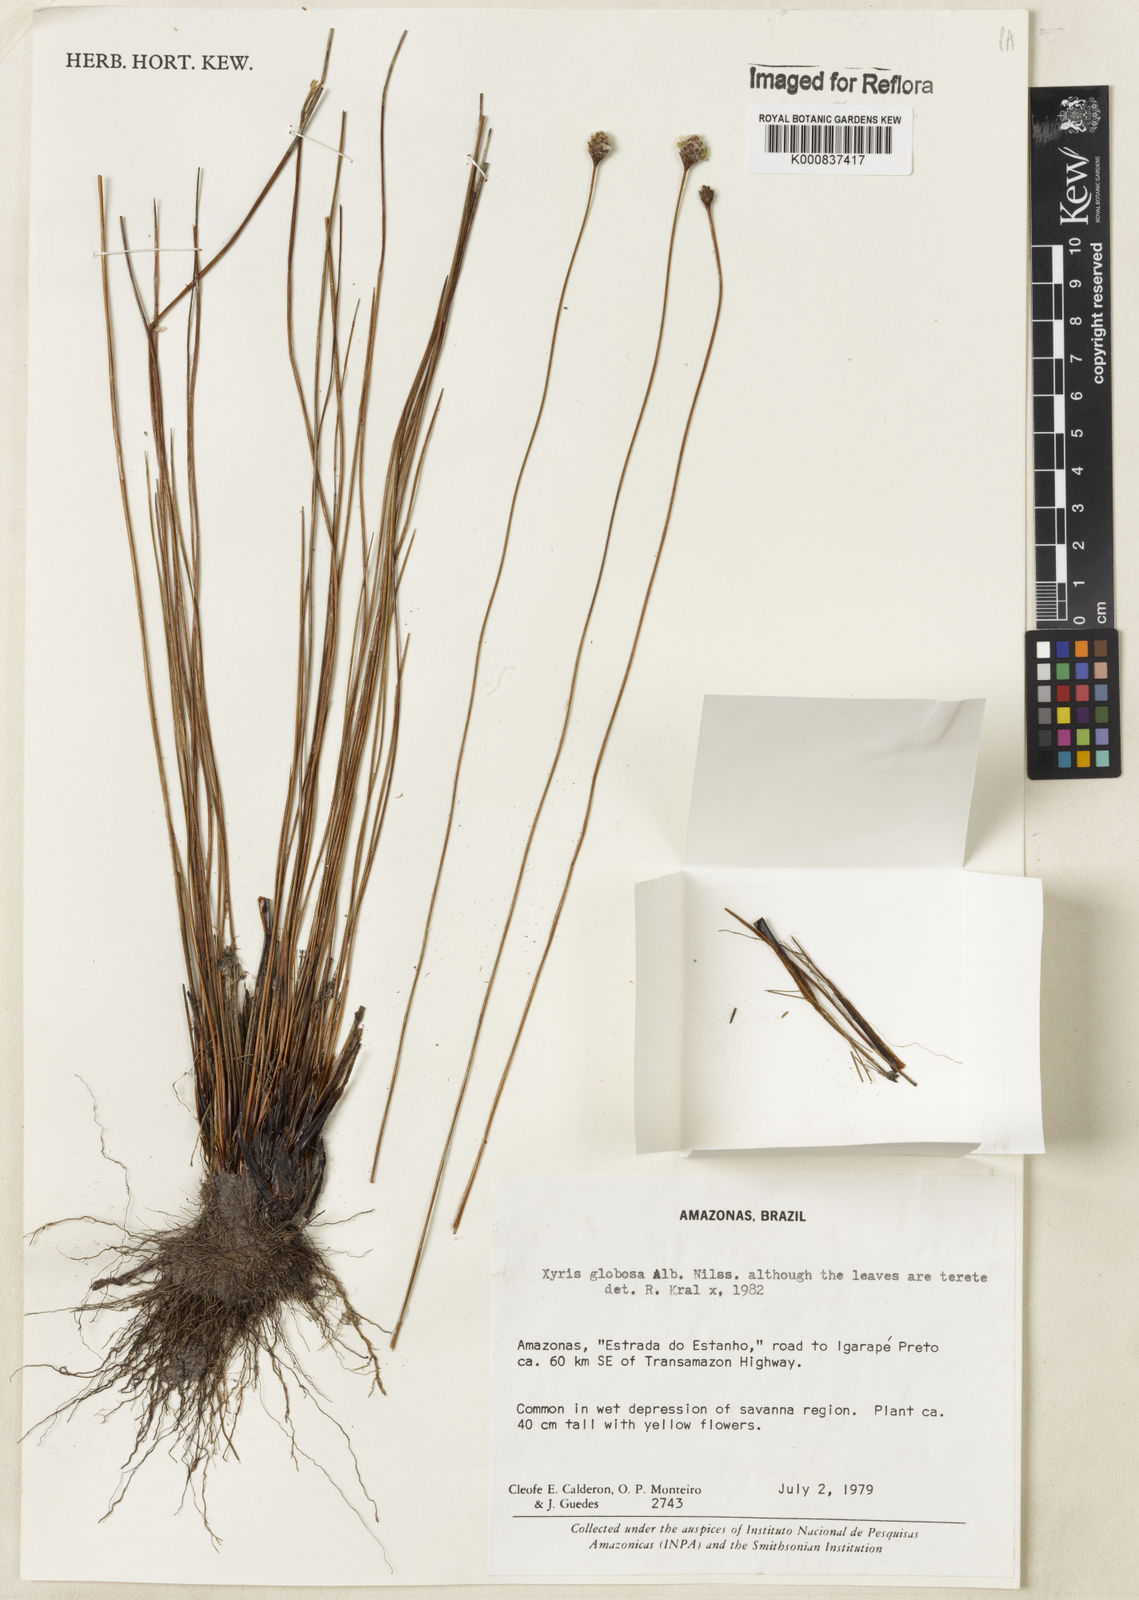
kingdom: Plantae
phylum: Tracheophyta
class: Liliopsida
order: Poales
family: Xyridaceae
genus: Xyris
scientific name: Xyris globosa
